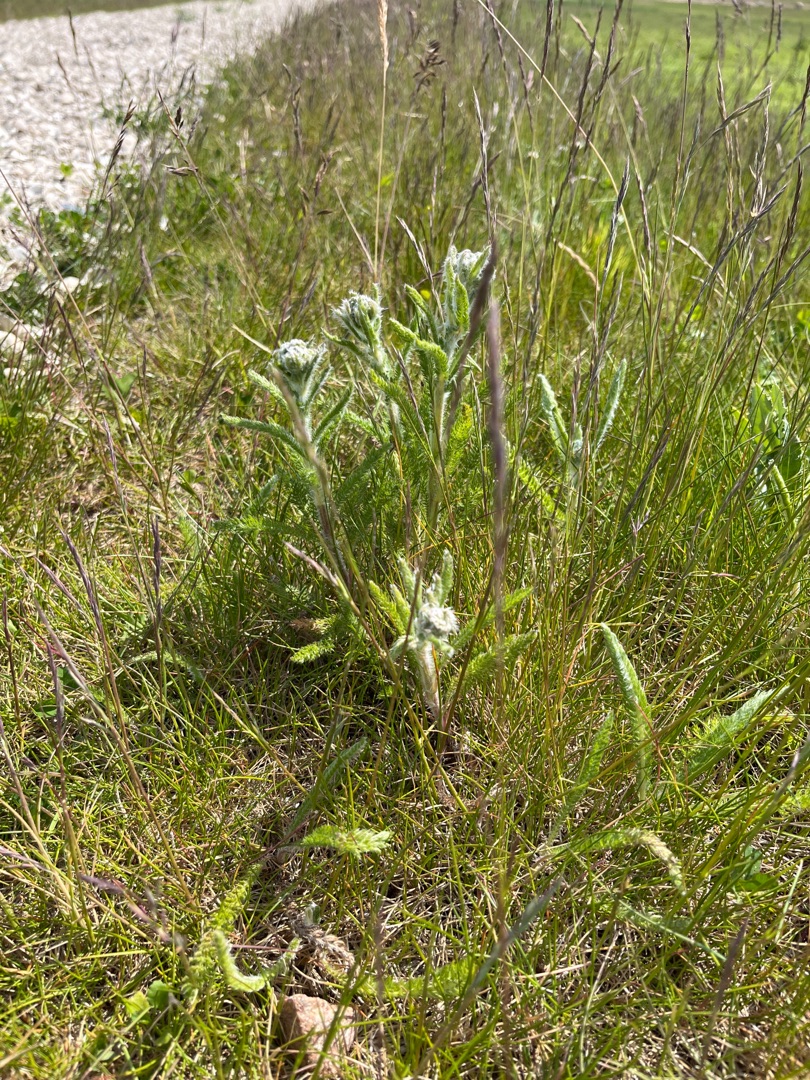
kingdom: Plantae
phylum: Tracheophyta
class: Magnoliopsida
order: Asterales
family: Asteraceae
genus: Achillea
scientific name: Achillea millefolium
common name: Almindelig røllike
